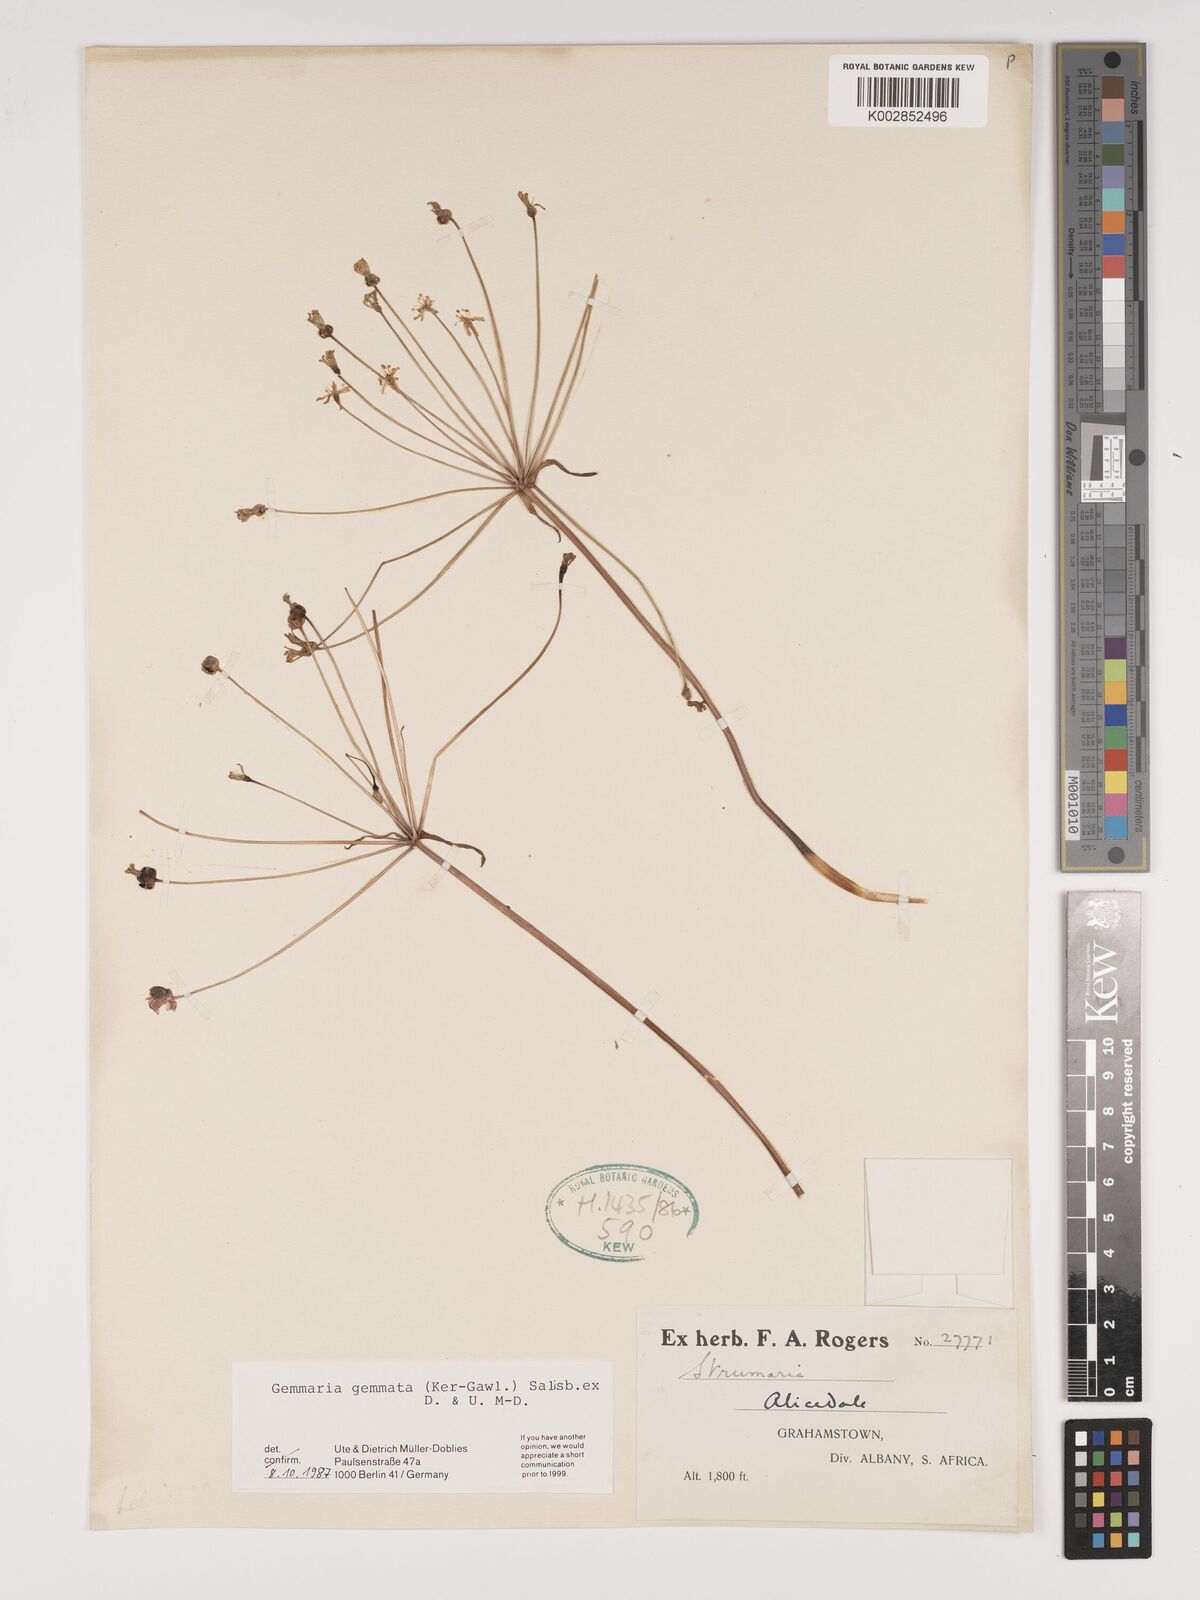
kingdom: Plantae
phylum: Tracheophyta
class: Liliopsida
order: Asparagales
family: Amaryllidaceae
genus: Strumaria
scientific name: Strumaria gemmata
